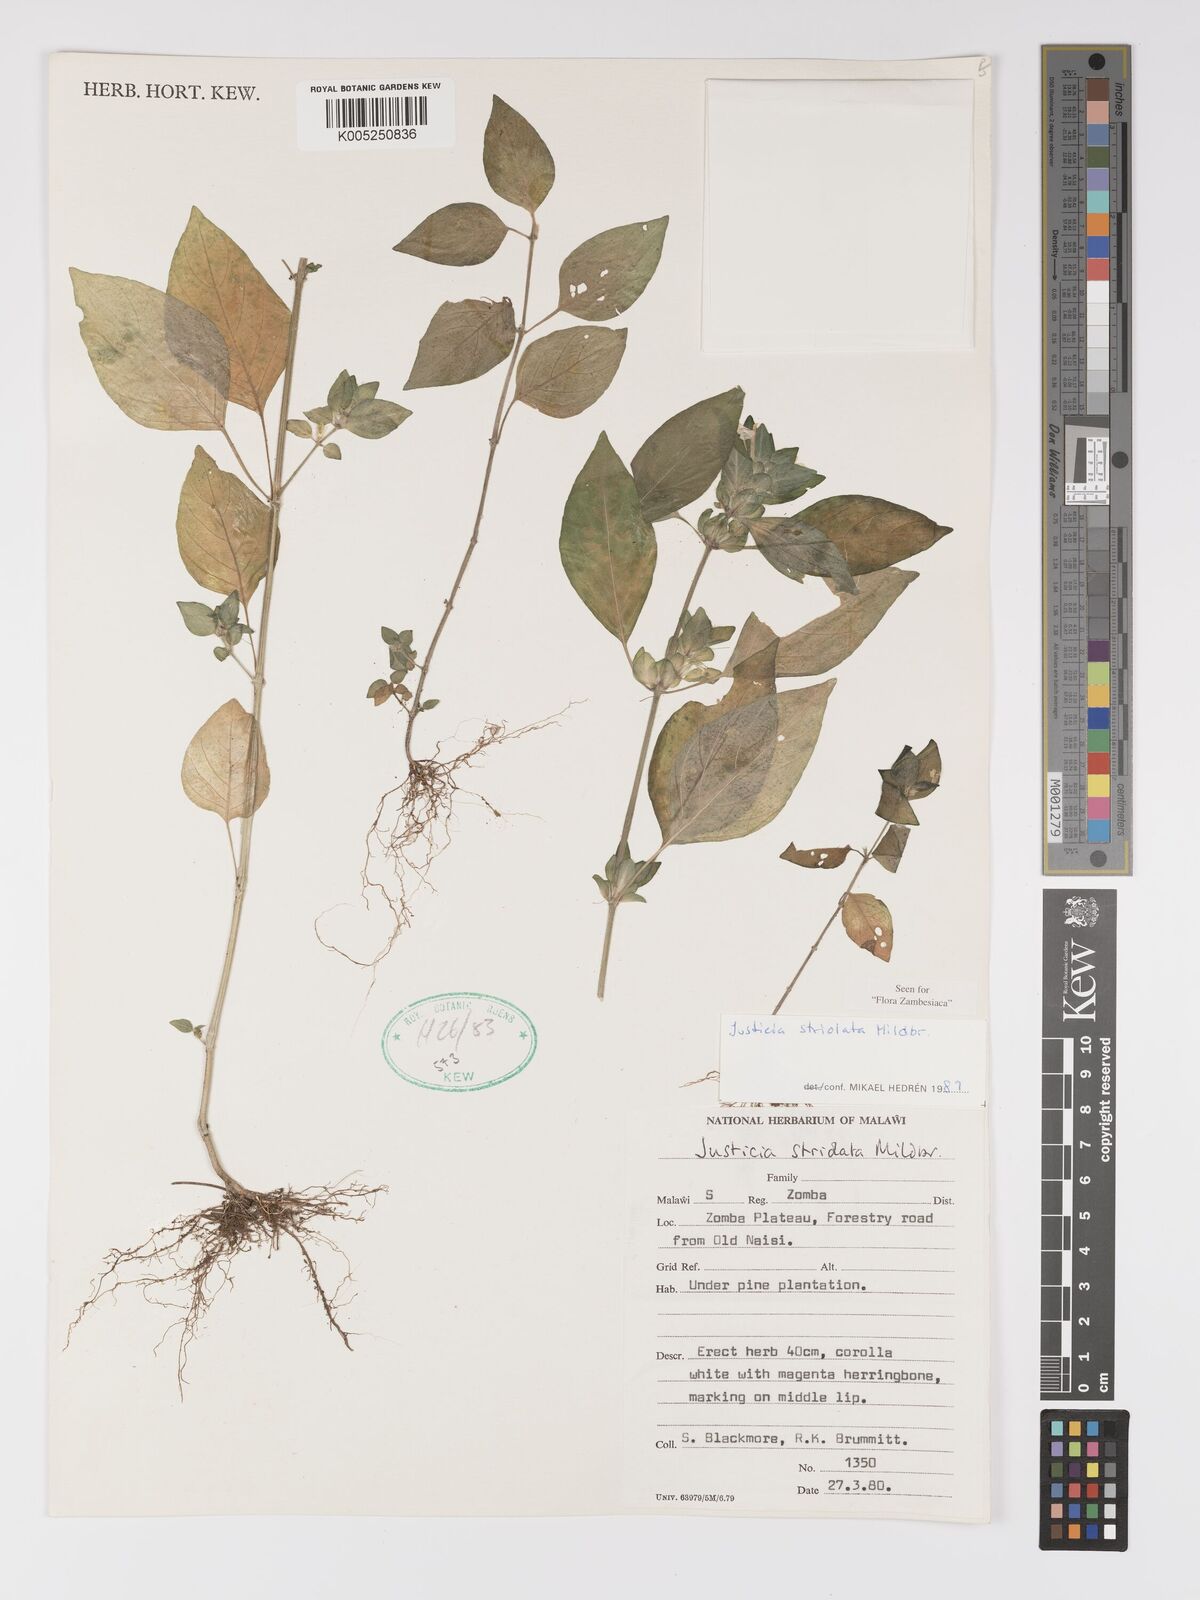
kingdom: Plantae
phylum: Tracheophyta
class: Magnoliopsida
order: Lamiales
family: Acanthaceae
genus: Justicia
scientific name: Justicia striolata
